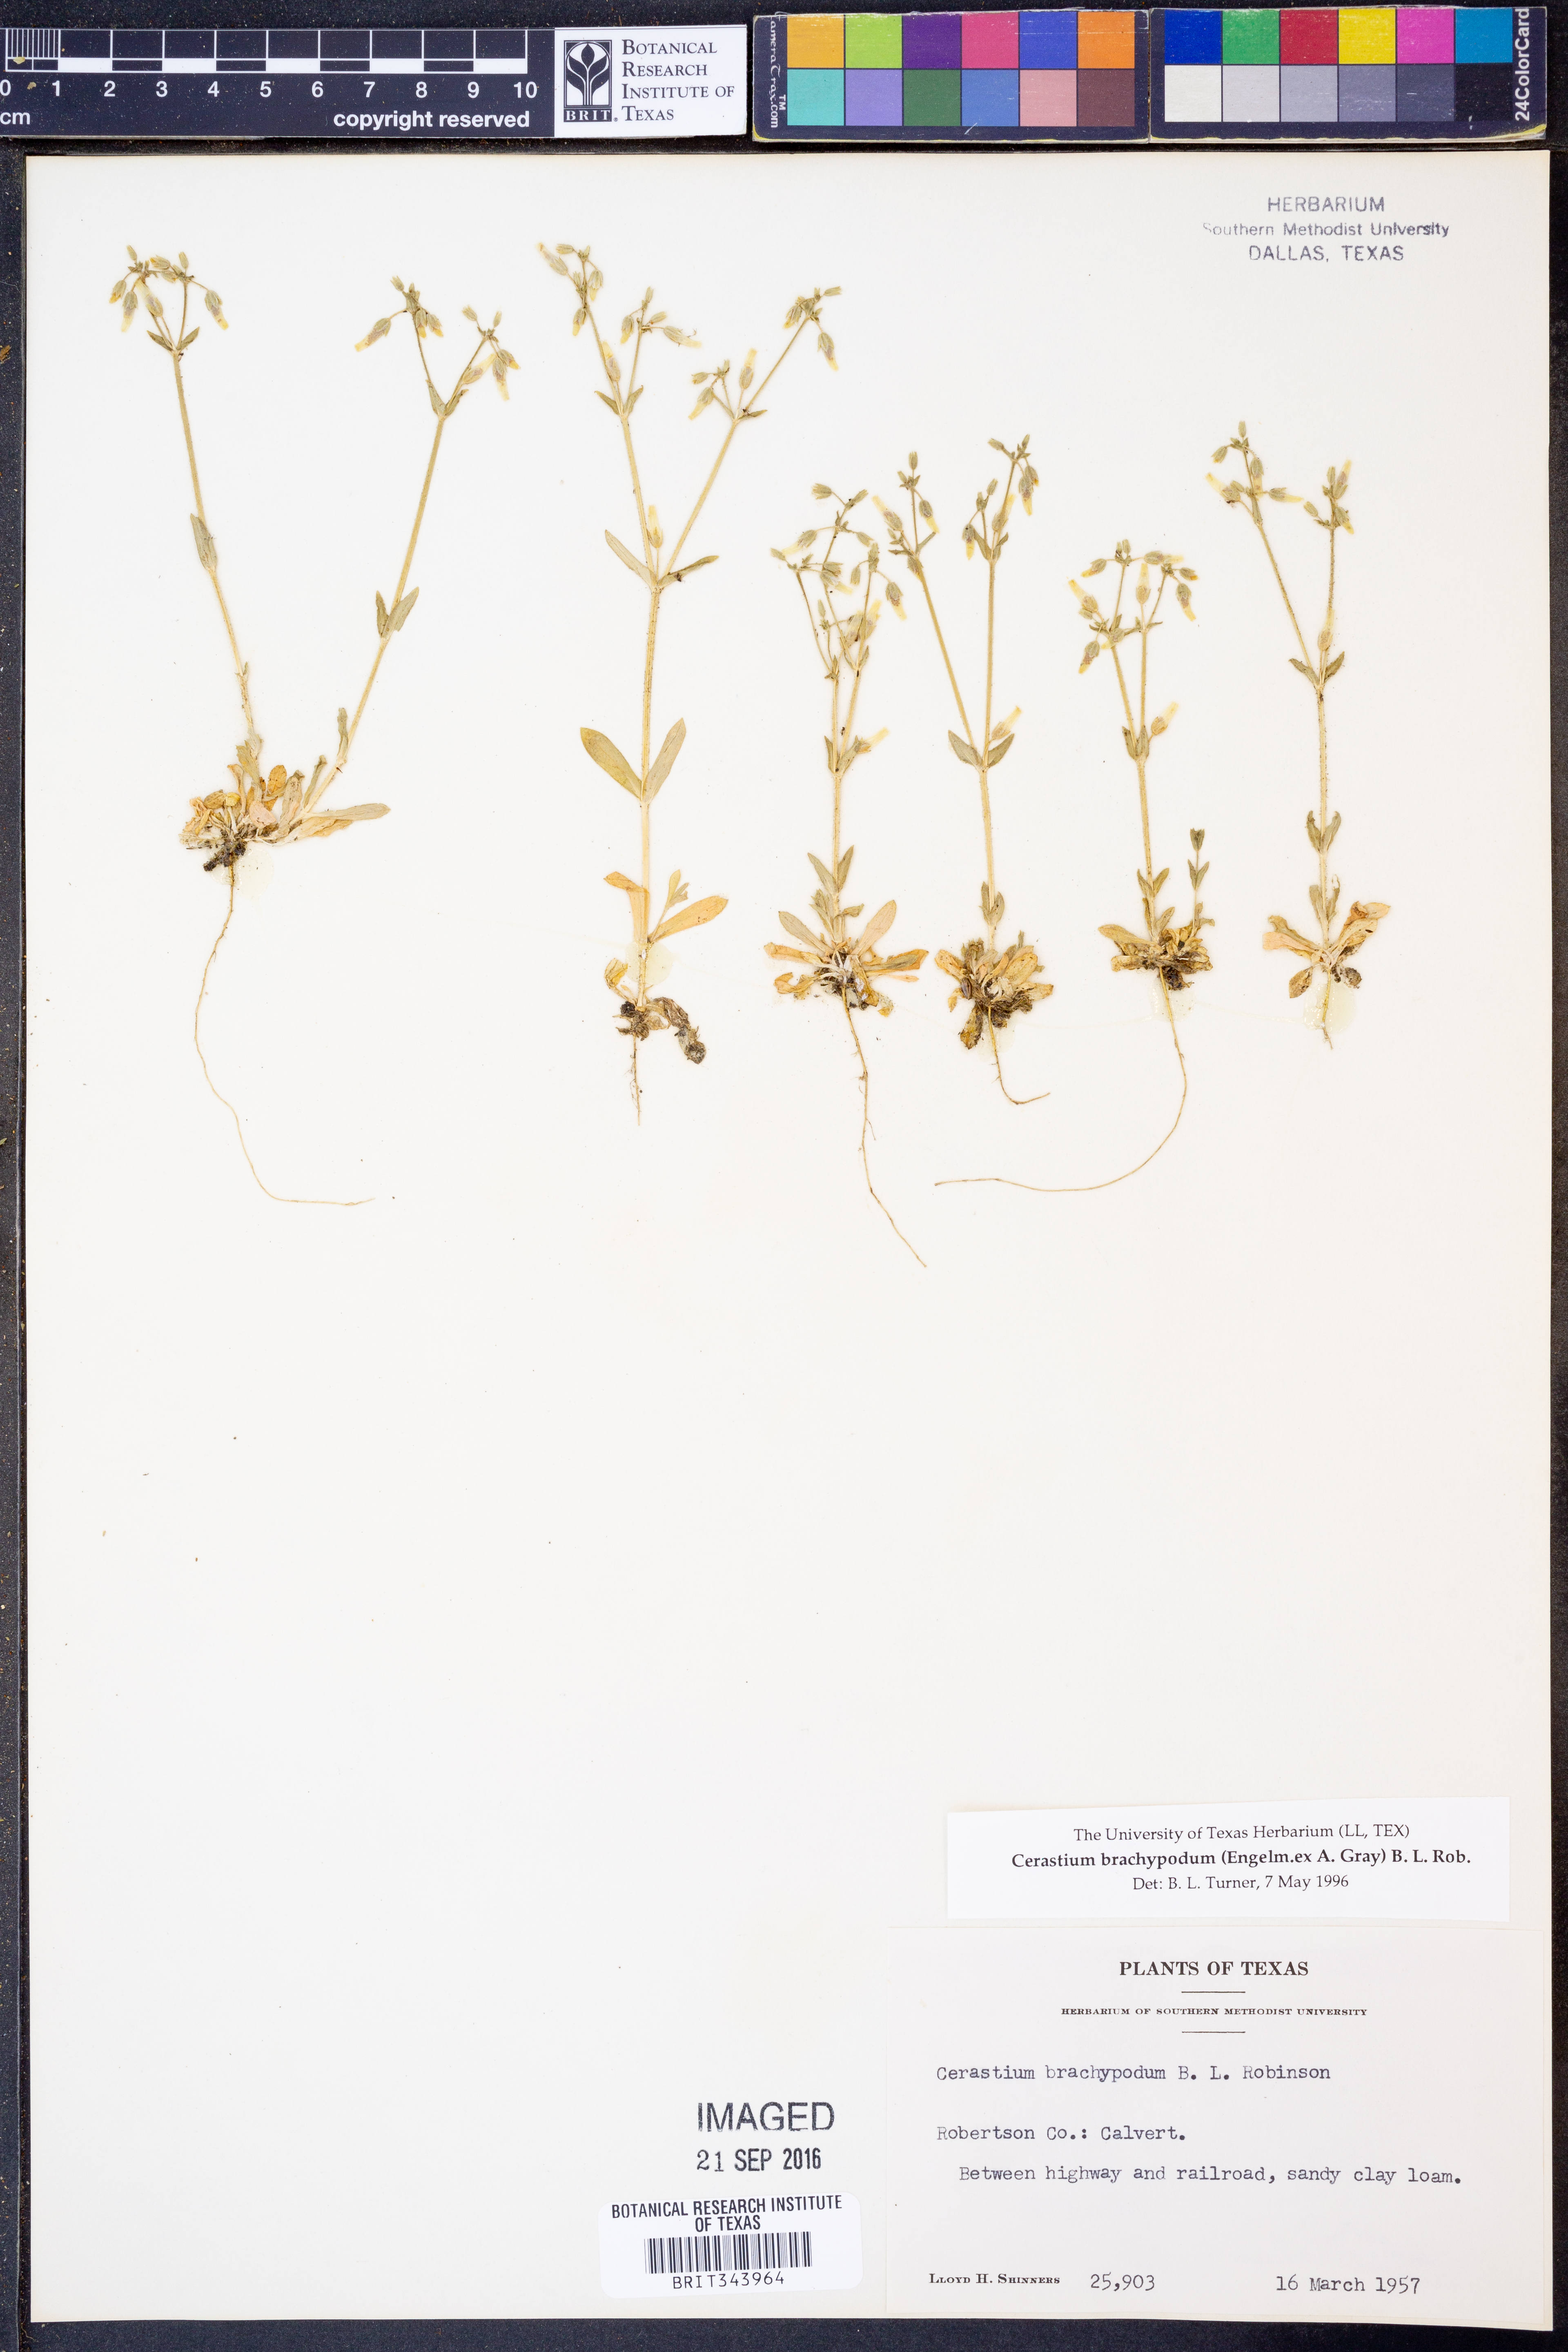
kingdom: Plantae
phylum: Tracheophyta
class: Magnoliopsida
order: Caryophyllales
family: Caryophyllaceae
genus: Cerastium
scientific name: Cerastium brachypodum
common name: Short-pedicelled nodding chickweed
